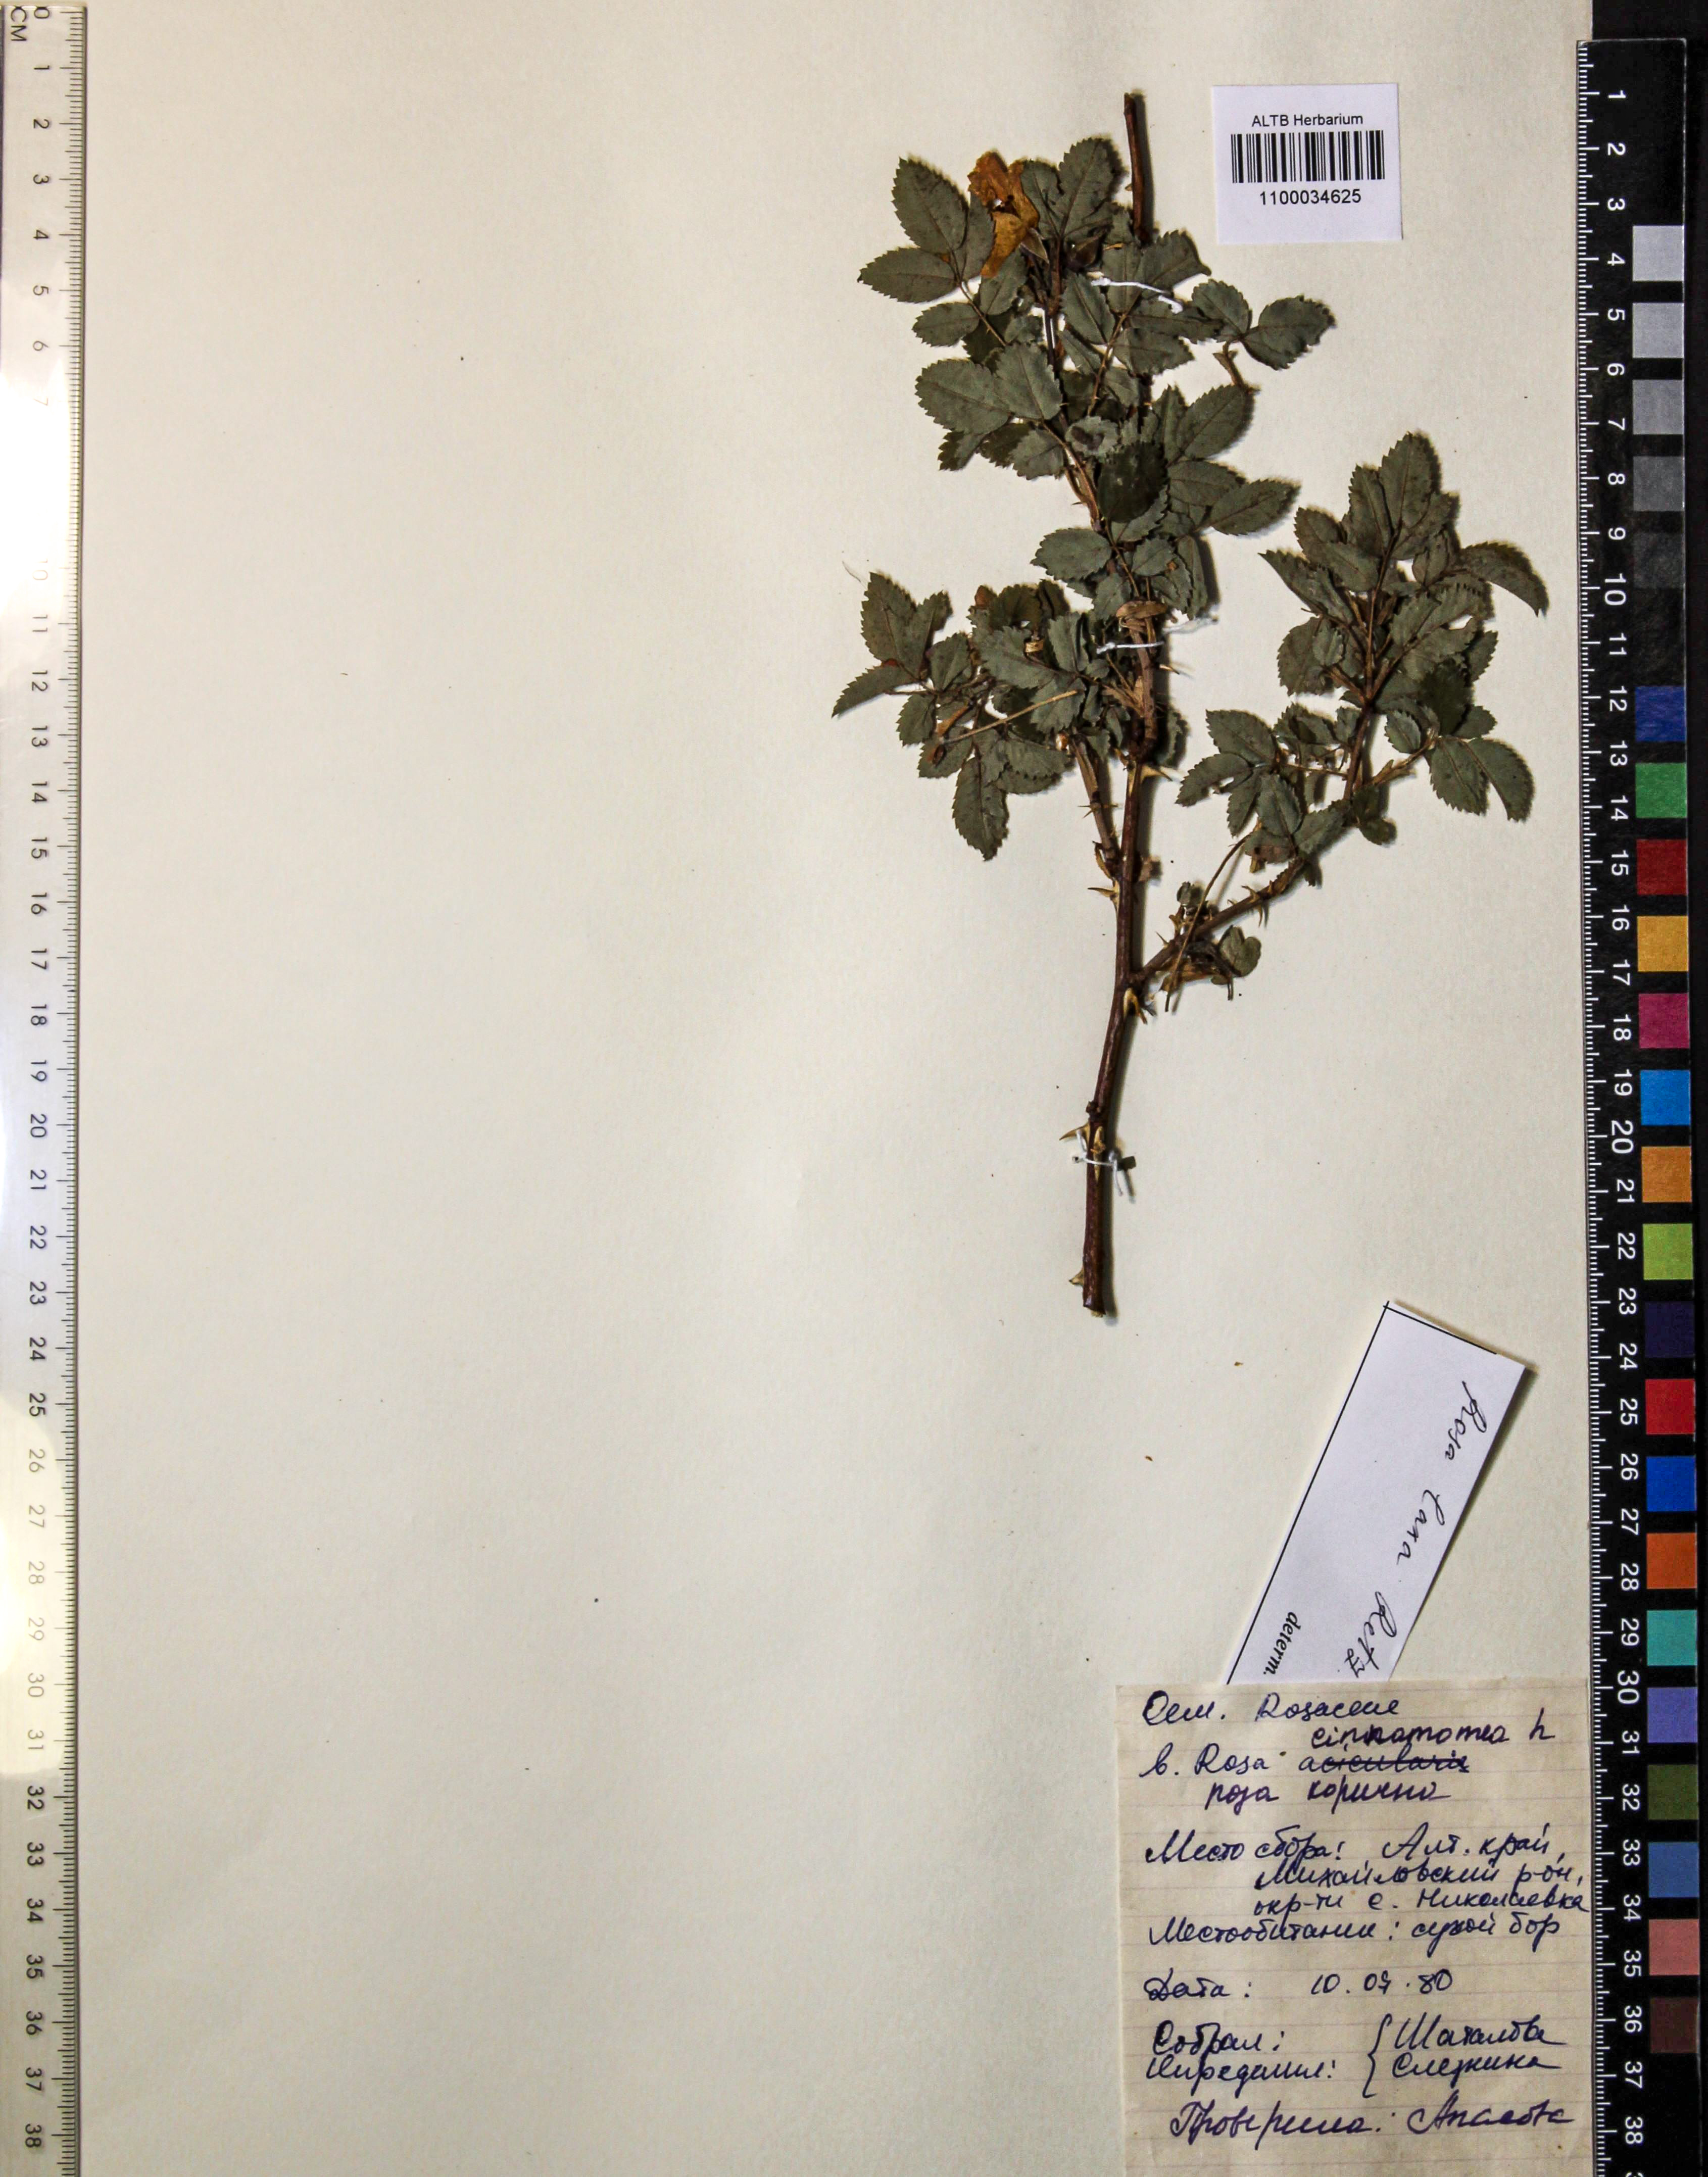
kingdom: Plantae
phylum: Tracheophyta
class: Magnoliopsida
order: Rosales
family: Rosaceae
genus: Rosa
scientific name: Rosa laxa
